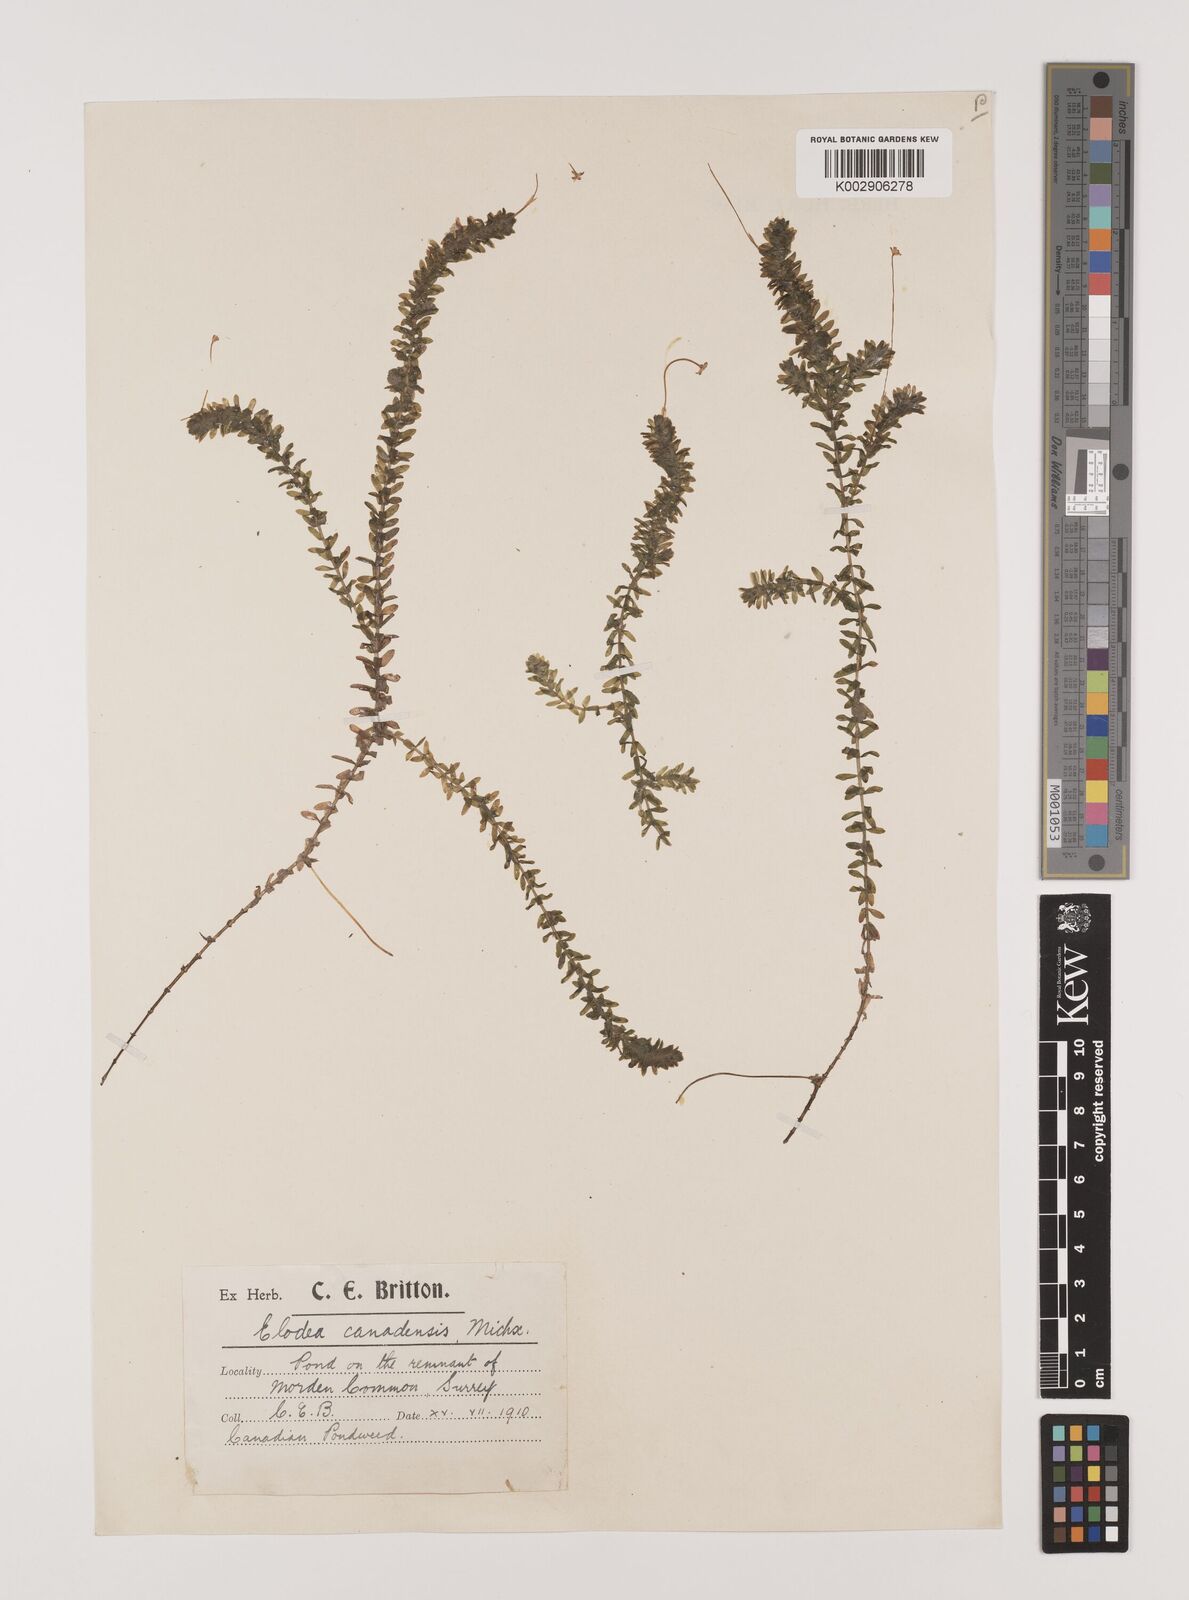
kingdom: Plantae
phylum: Tracheophyta
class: Liliopsida
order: Alismatales
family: Hydrocharitaceae
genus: Elodea
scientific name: Elodea canadensis
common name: Canadian waterweed
